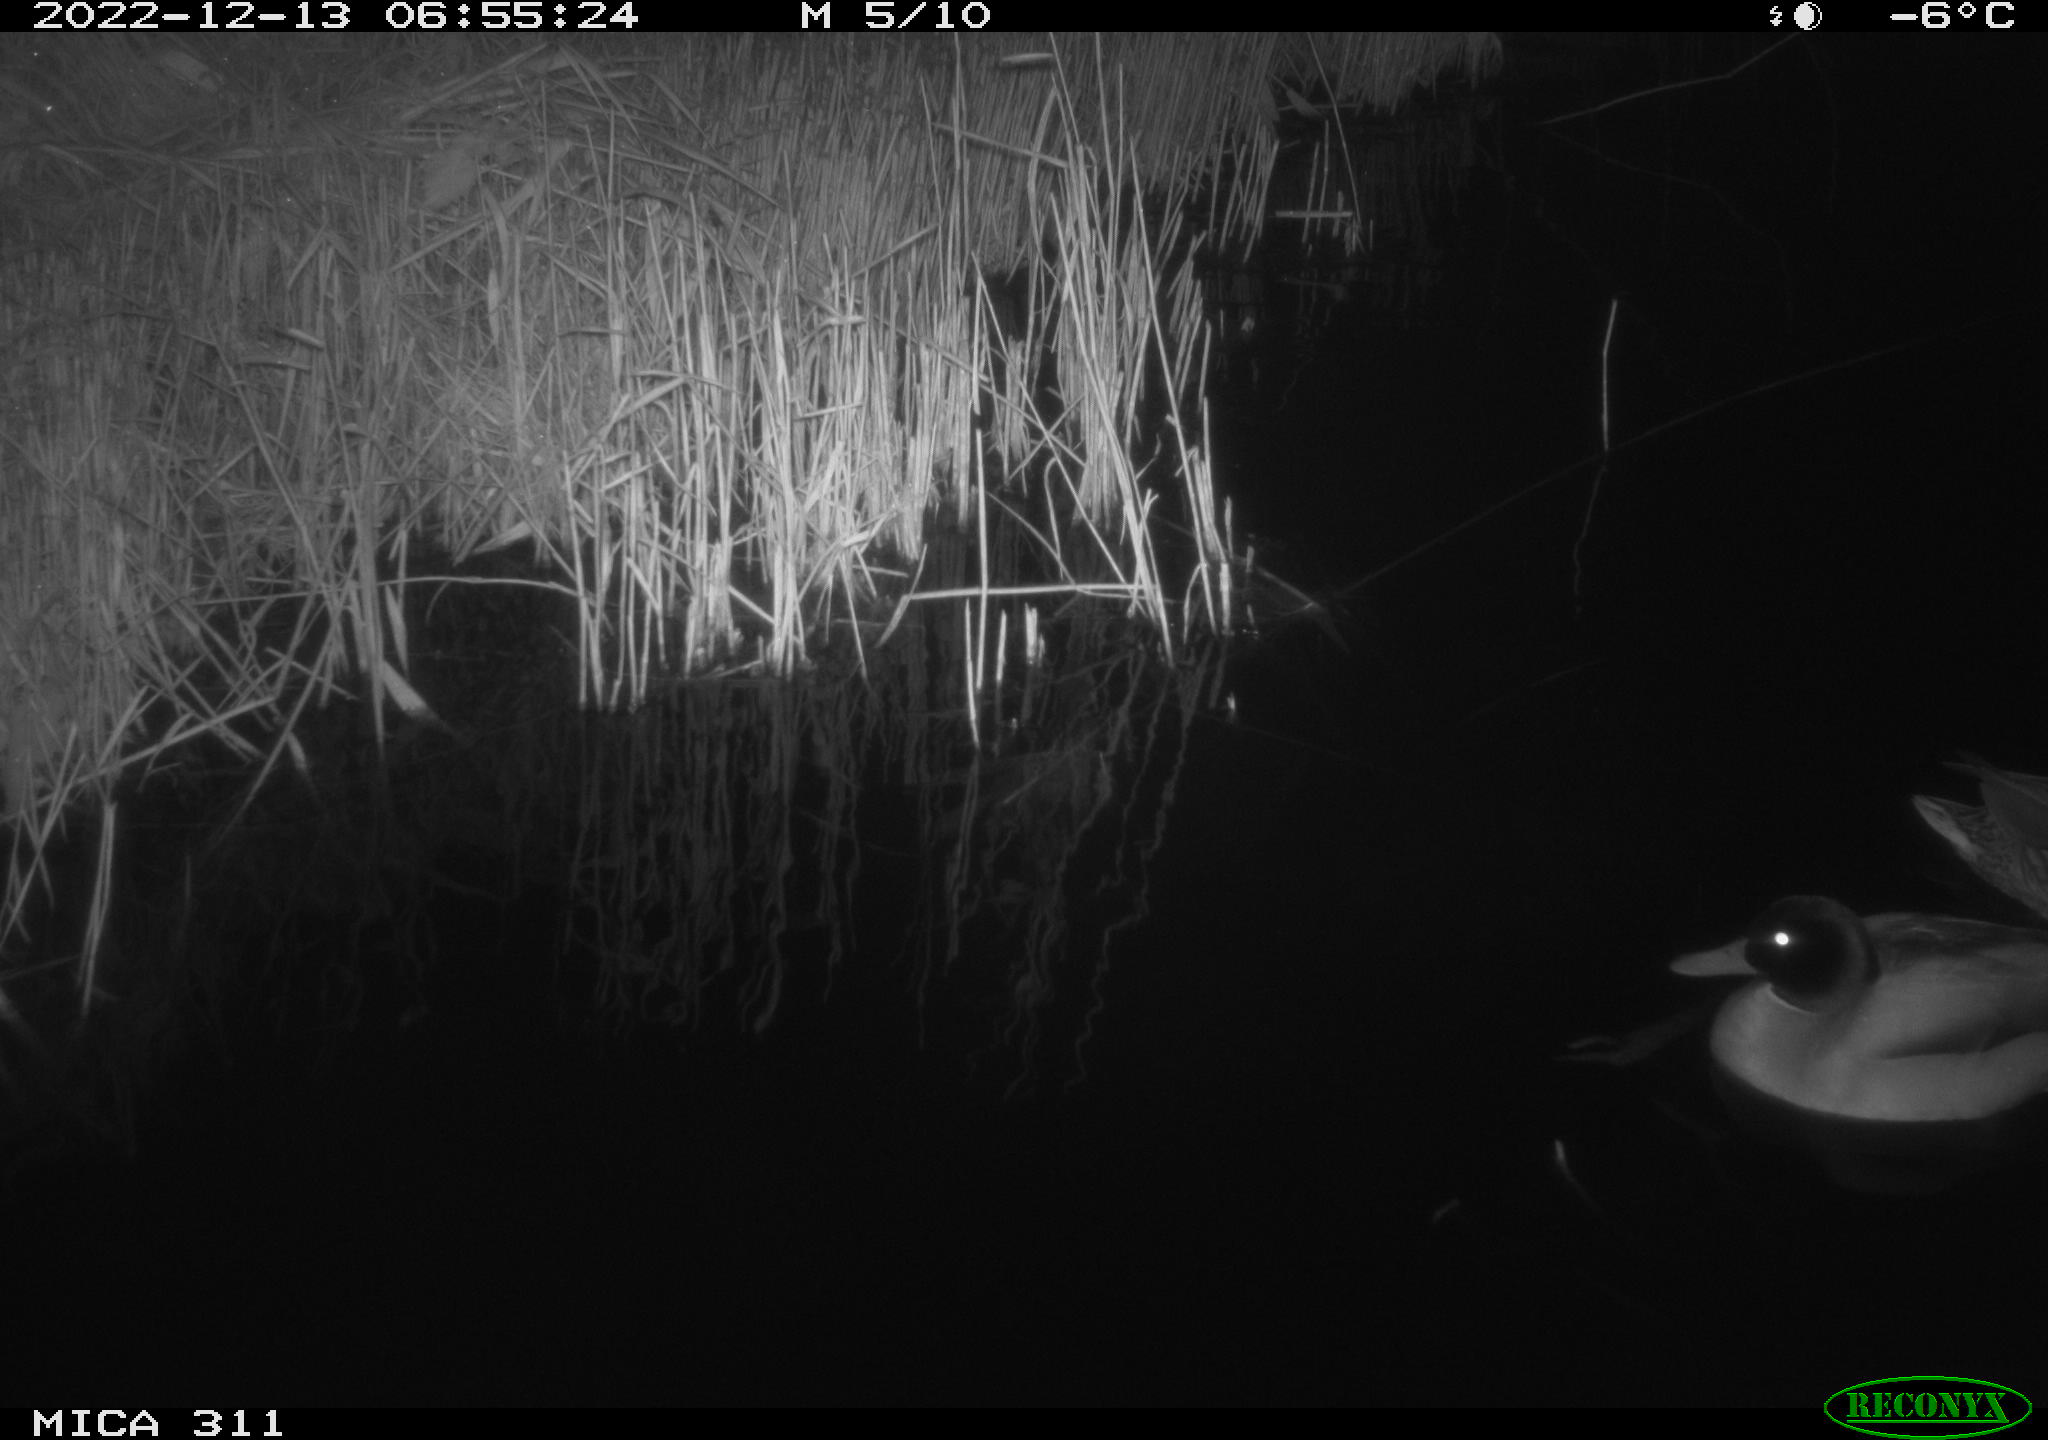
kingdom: Animalia
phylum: Chordata
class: Aves
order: Anseriformes
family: Anatidae
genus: Anas
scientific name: Anas
